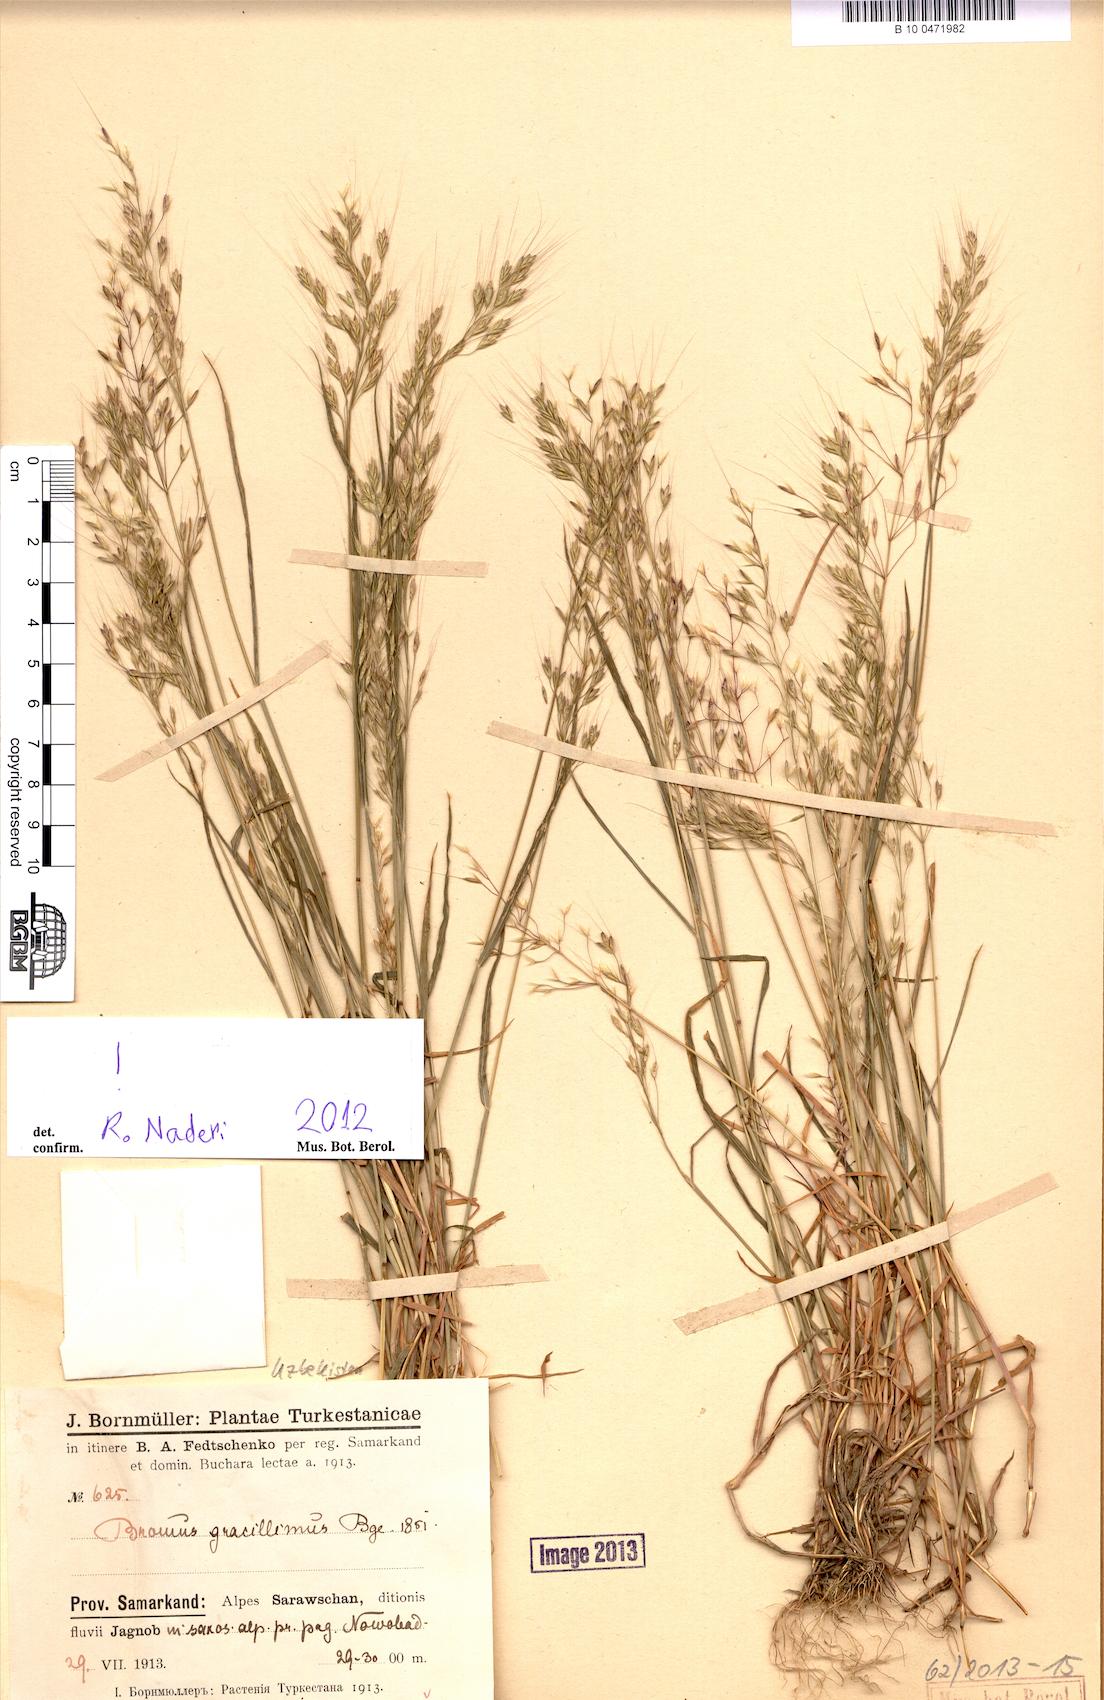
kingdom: Plantae
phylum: Tracheophyta
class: Liliopsida
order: Poales
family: Poaceae
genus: Bromus
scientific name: Bromus gracillimus
